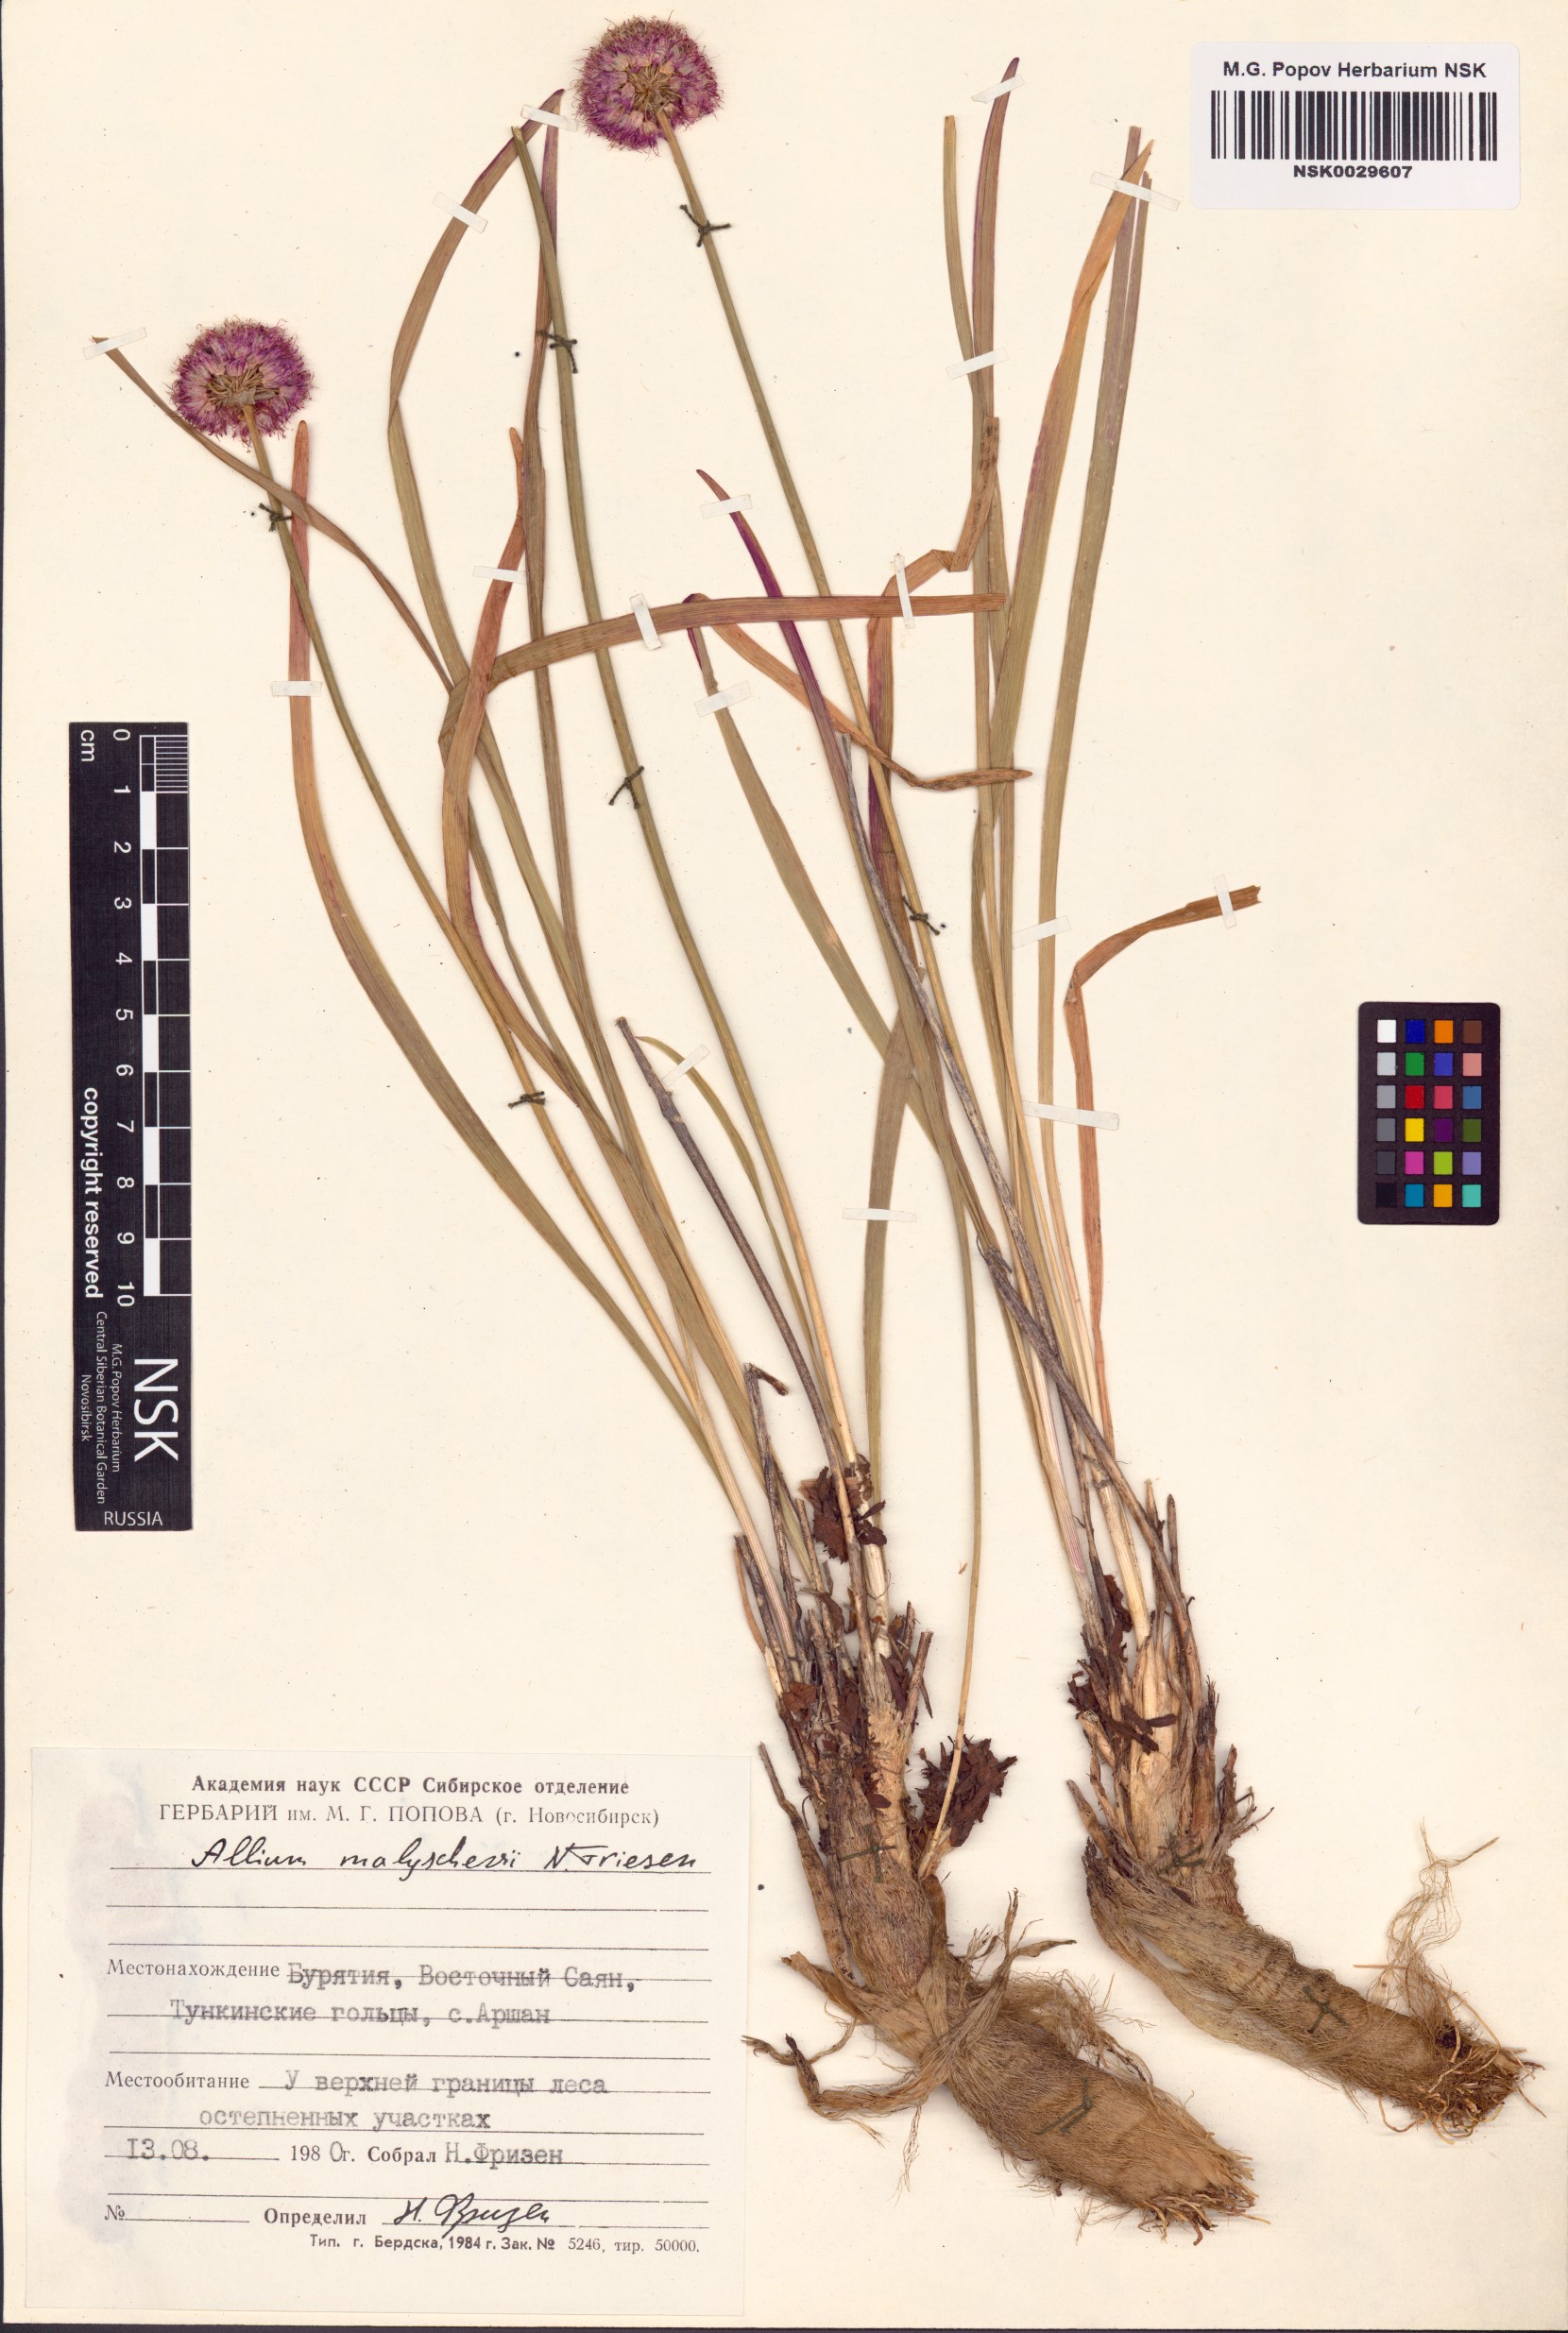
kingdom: Plantae
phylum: Tracheophyta
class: Liliopsida
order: Asparagales
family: Amaryllidaceae
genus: Allium
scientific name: Allium malyschevii
